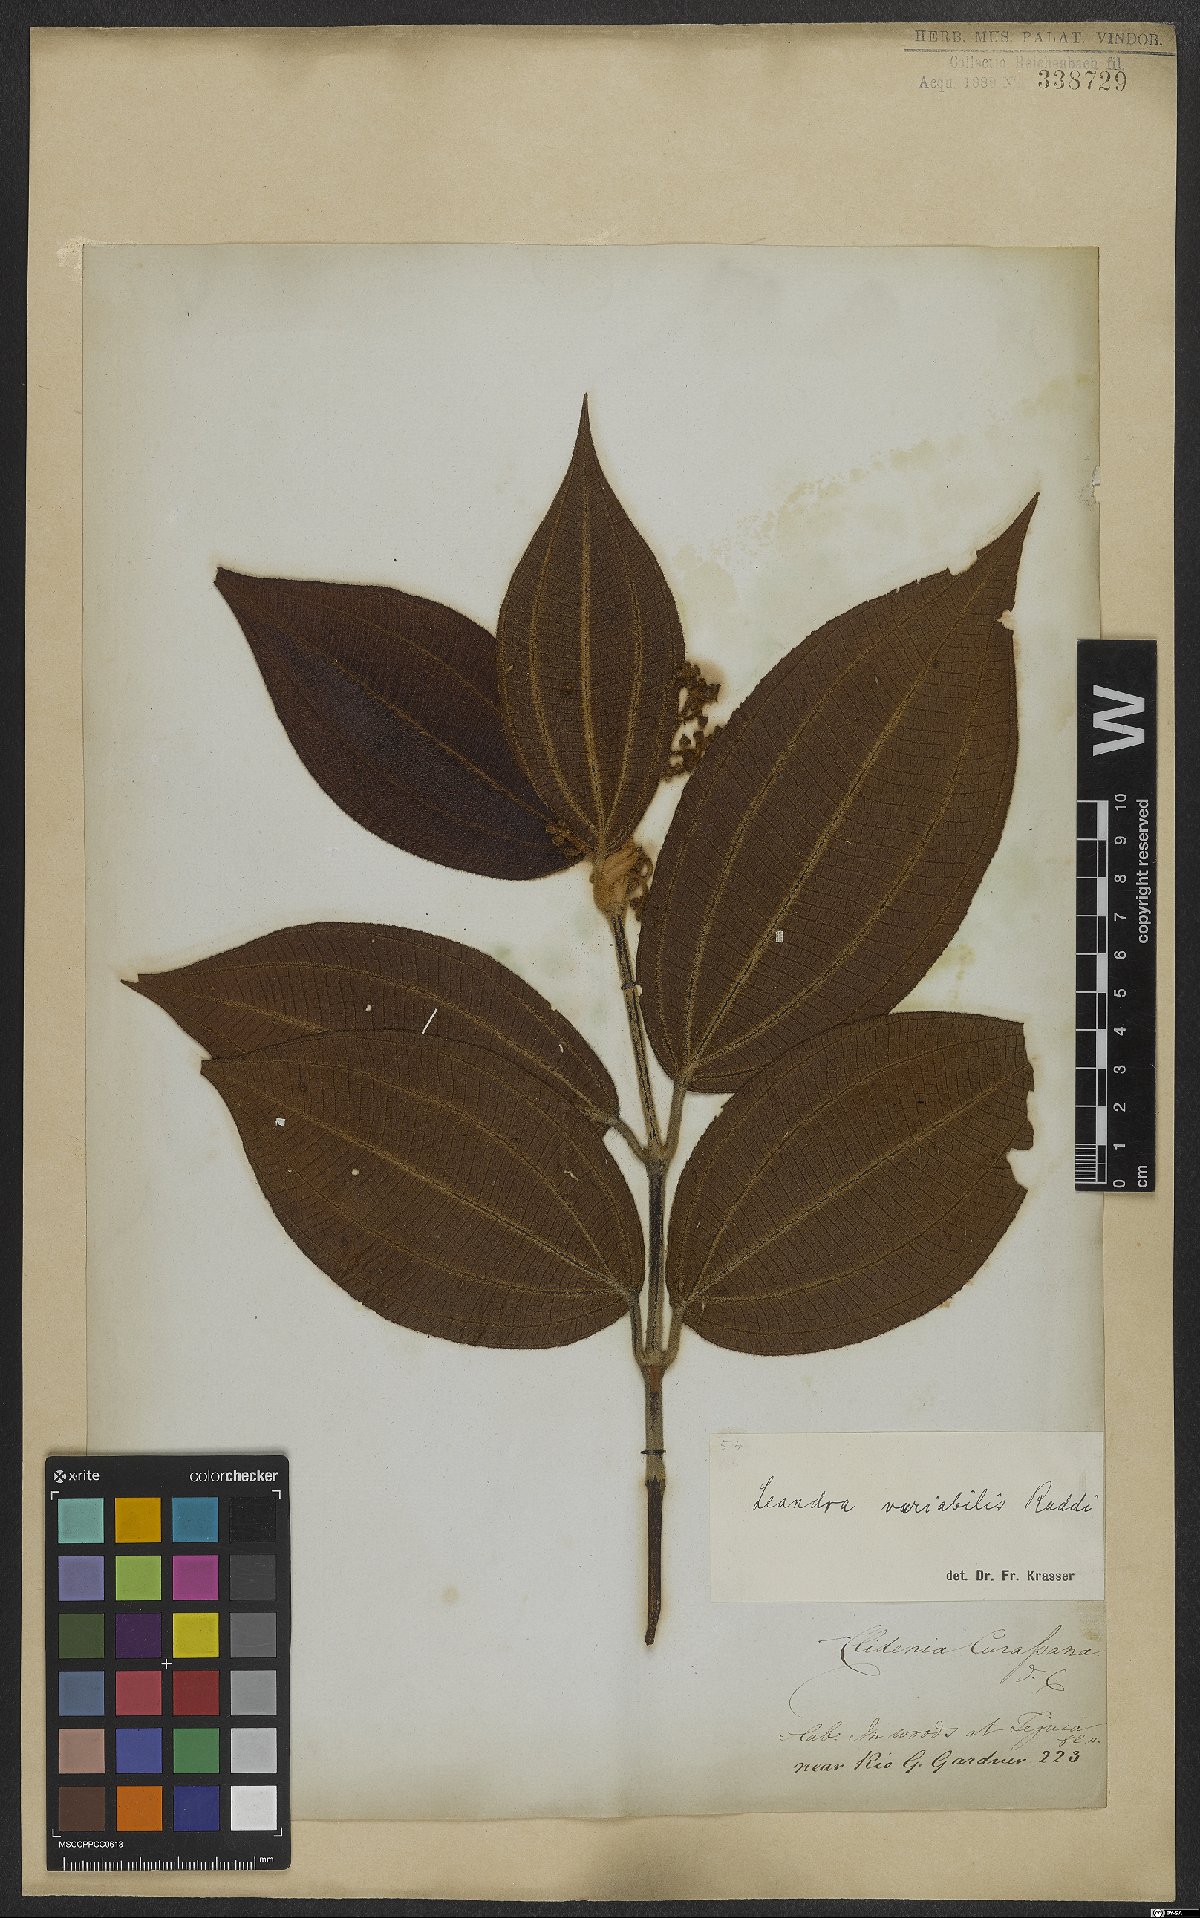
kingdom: Plantae
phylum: Tracheophyta
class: Magnoliopsida
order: Myrtales
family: Melastomataceae
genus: Miconia
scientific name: Miconia dasytricha
